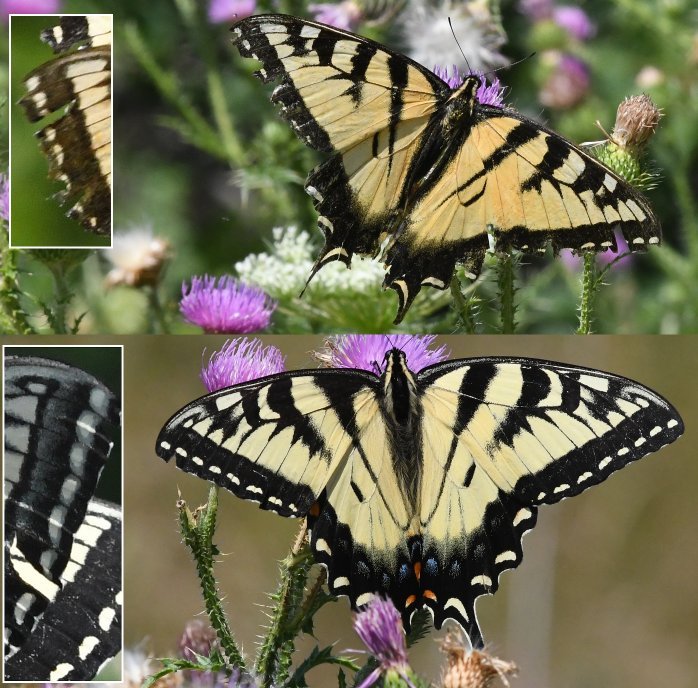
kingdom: Animalia
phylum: Arthropoda
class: Insecta
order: Lepidoptera
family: Papilionidae
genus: Pterourus
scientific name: Pterourus
